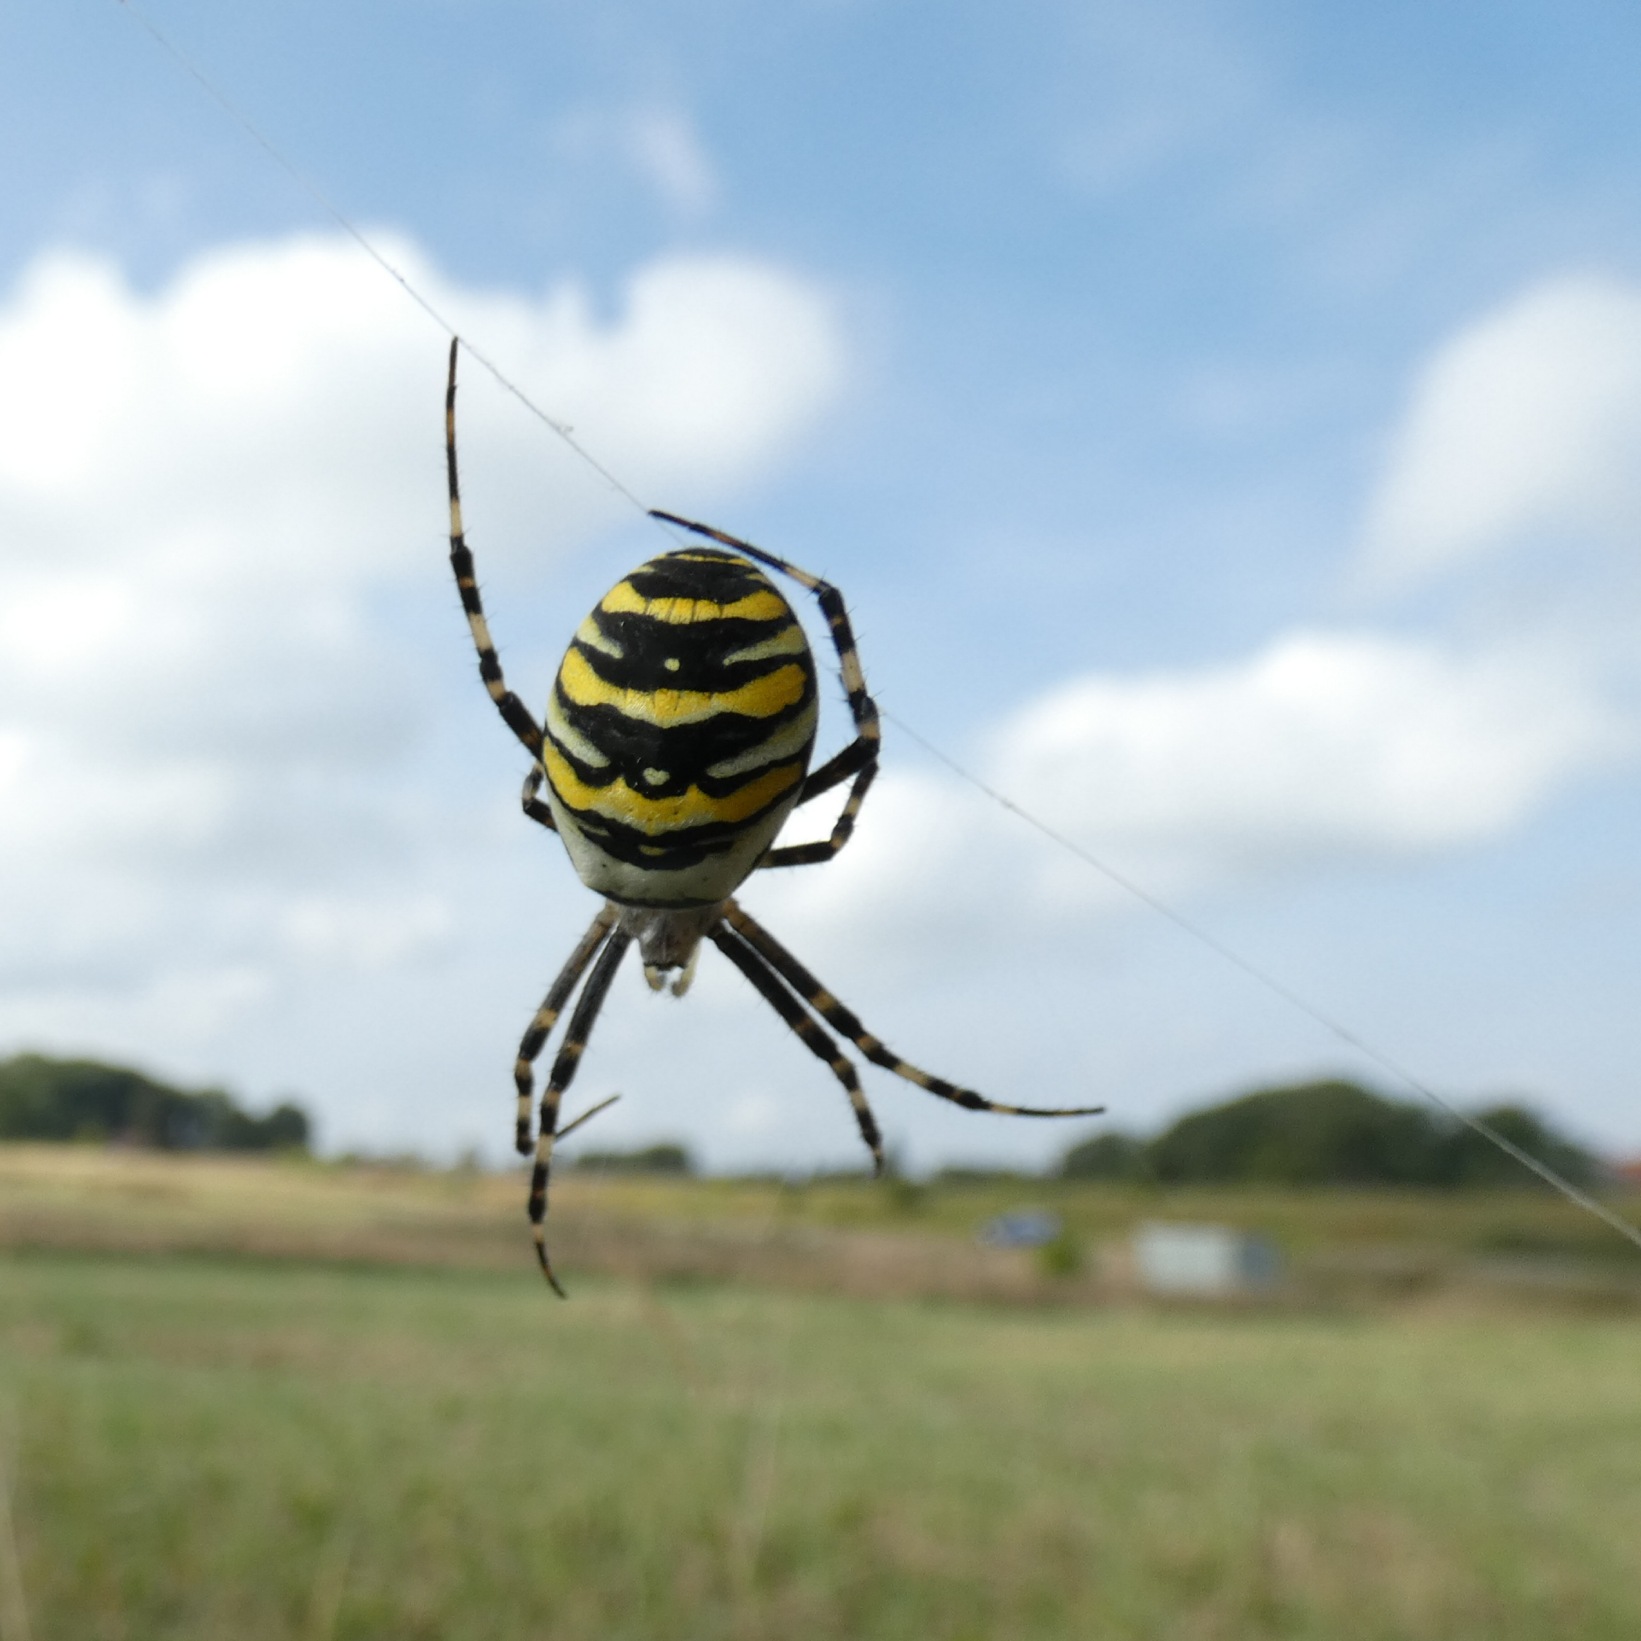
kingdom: Animalia
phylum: Arthropoda
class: Arachnida
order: Araneae
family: Araneidae
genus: Argiope
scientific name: Argiope bruennichi
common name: Hvepseedderkop
